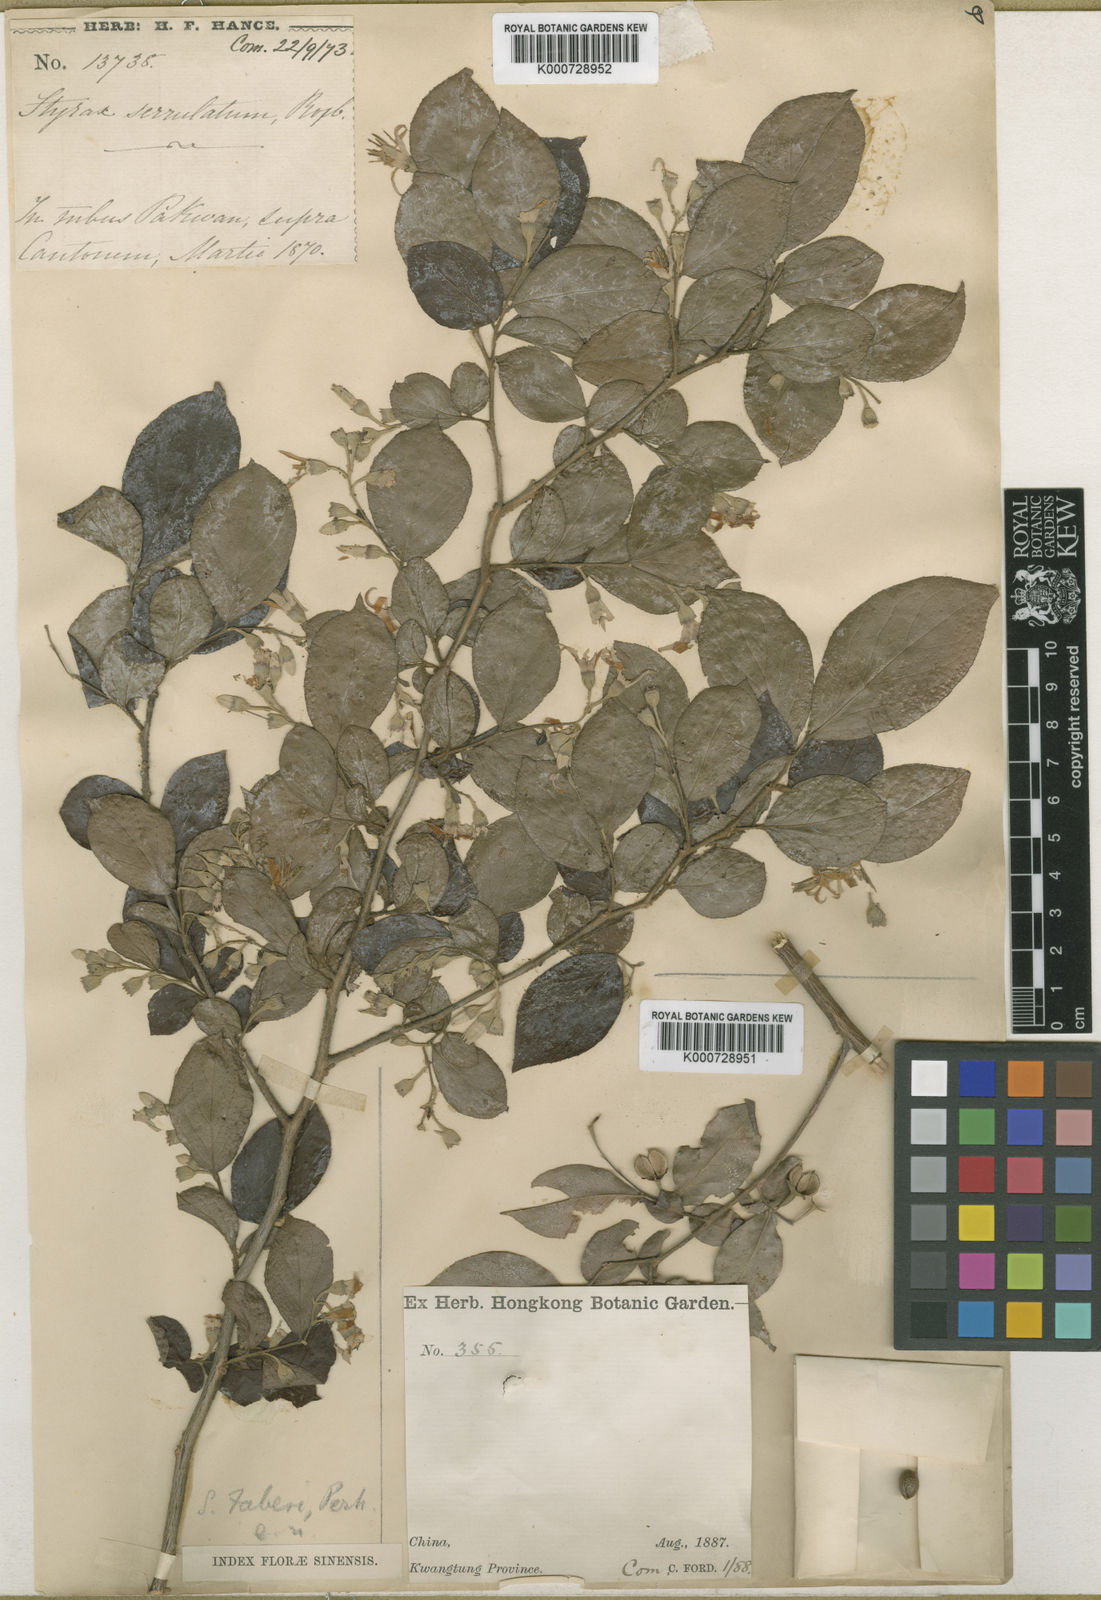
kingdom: Plantae
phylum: Tracheophyta
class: Magnoliopsida
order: Ericales
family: Styracaceae
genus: Styrax
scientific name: Styrax faberi
